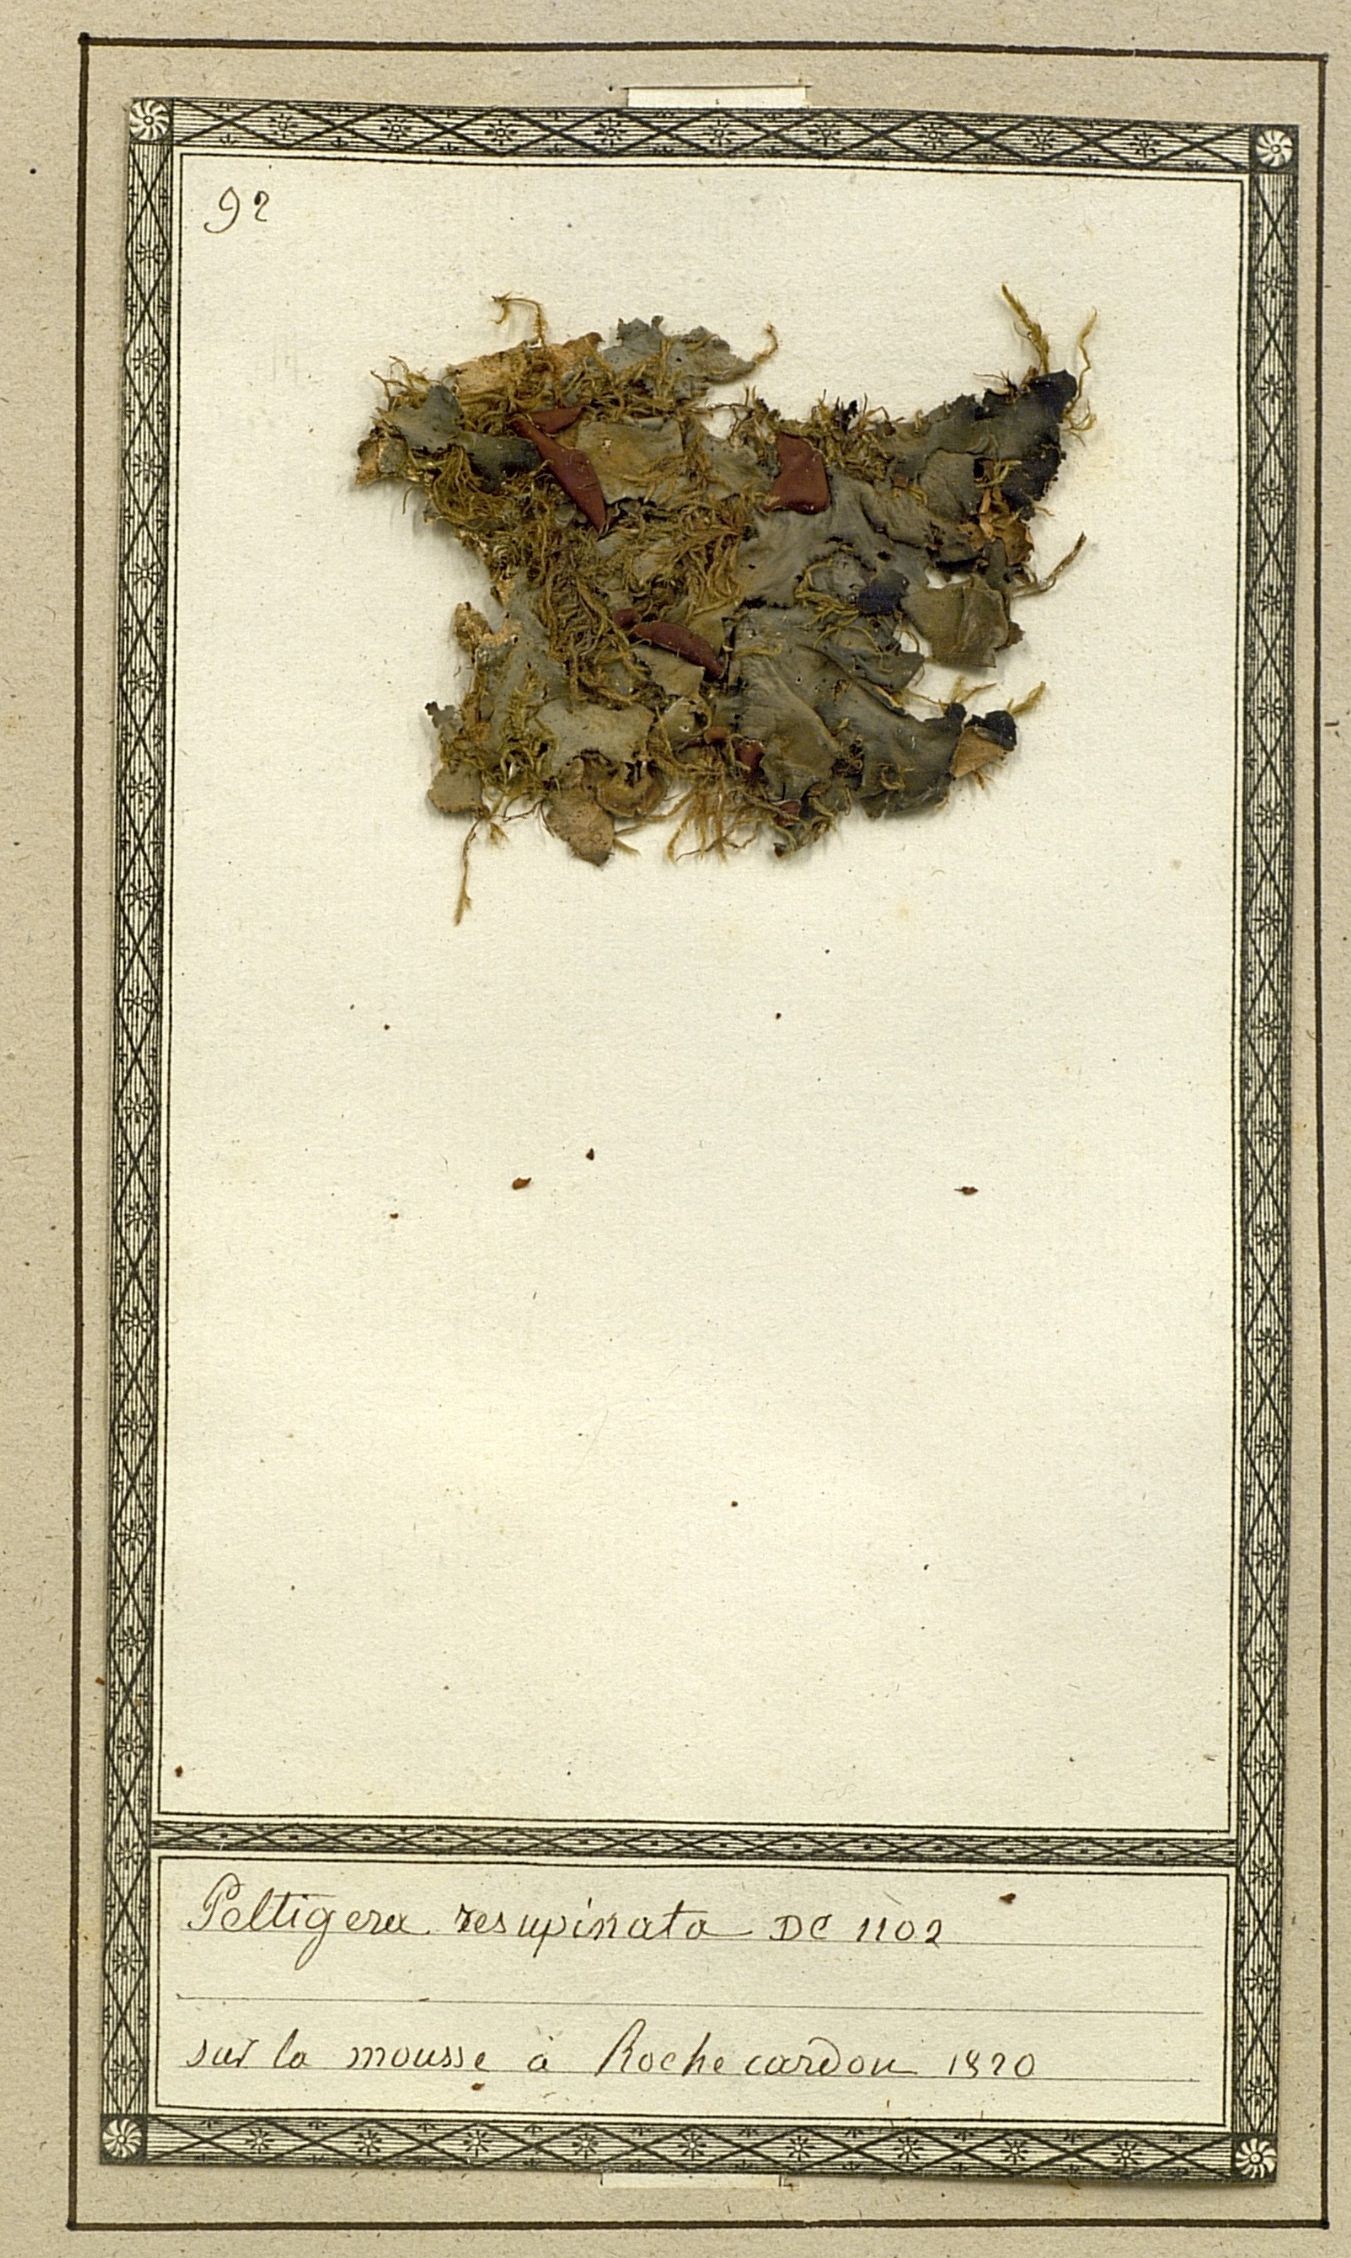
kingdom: Fungi
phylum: Ascomycota
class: Lecanoromycetes
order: Peltigerales
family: Nephromataceae
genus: Nephroma
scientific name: Nephroma resupinatum
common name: Pimpled kidney lichen
